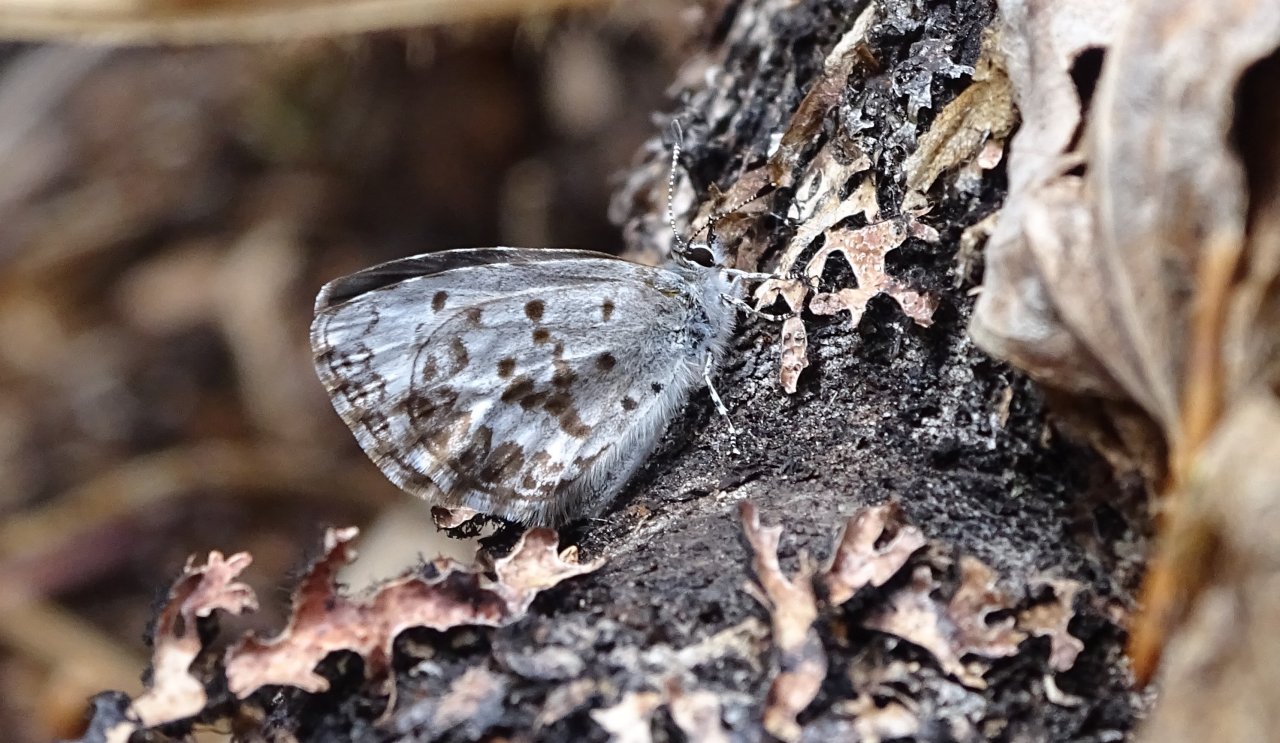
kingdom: Animalia
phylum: Arthropoda
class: Insecta
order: Lepidoptera
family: Lycaenidae
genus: Celastrina
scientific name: Celastrina lucia
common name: Northern Spring Azure
